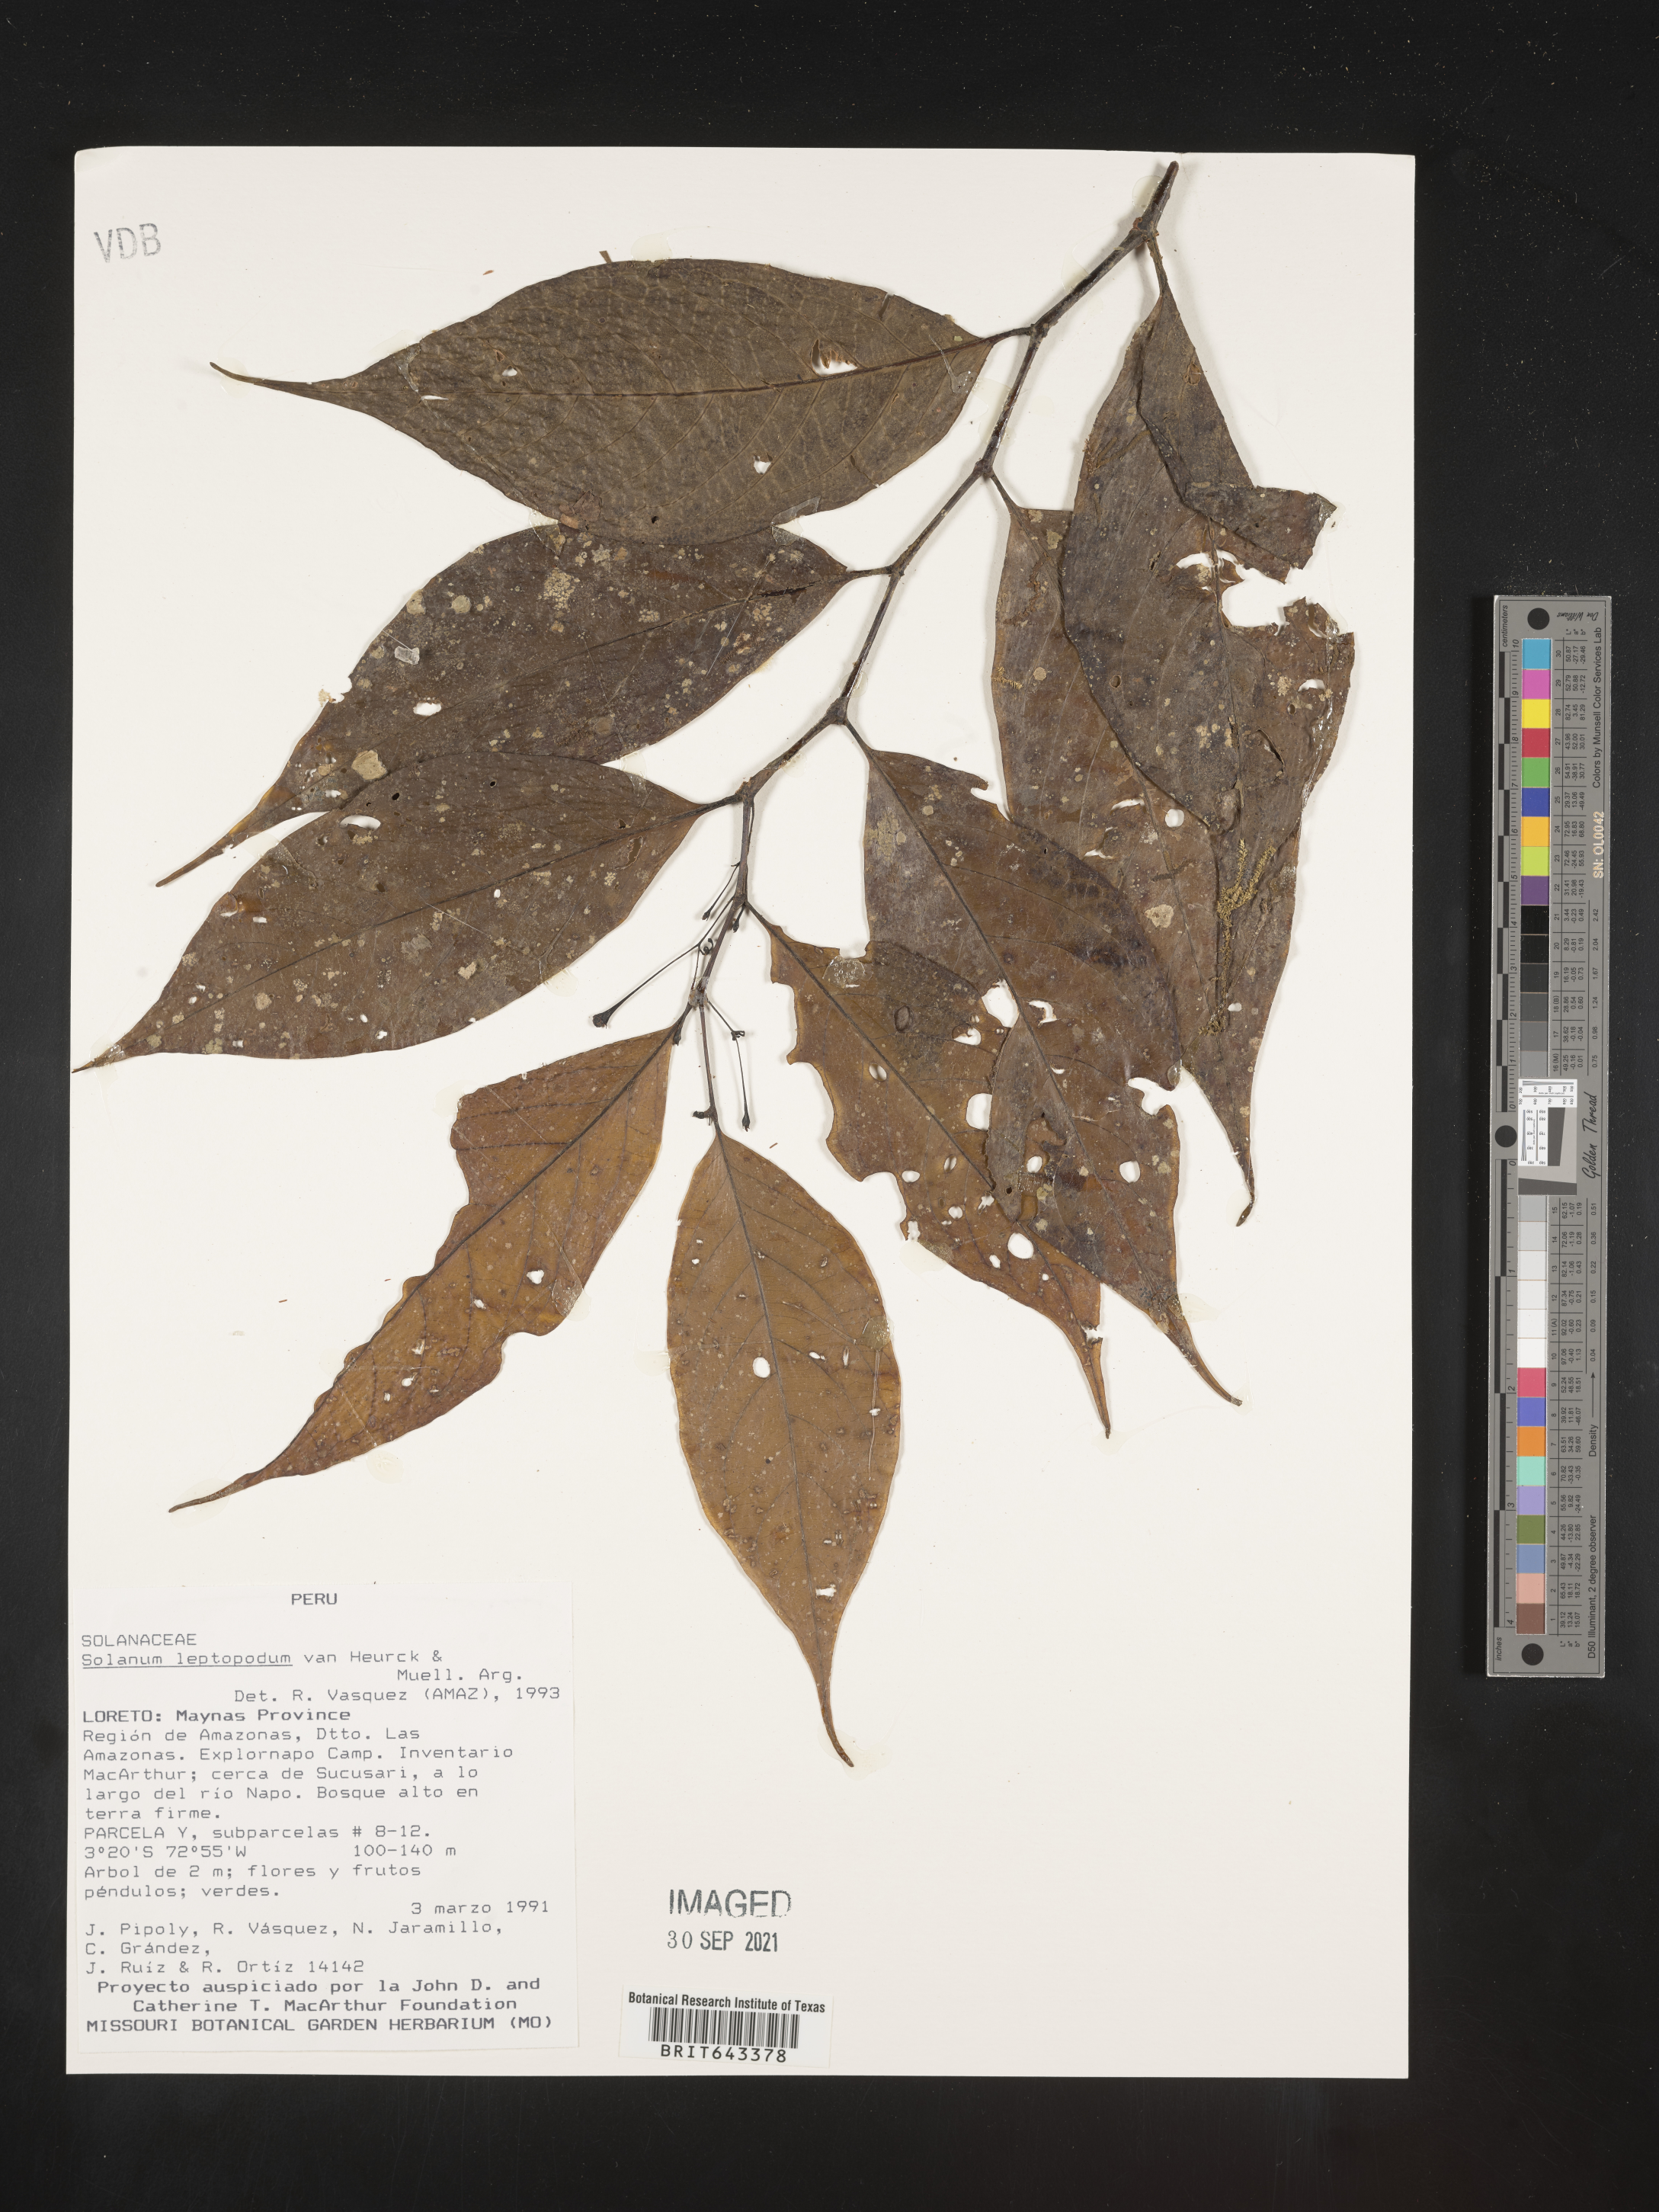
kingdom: Plantae
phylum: Tracheophyta
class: Magnoliopsida
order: Solanales
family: Solanaceae
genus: Solanum
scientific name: Solanum
